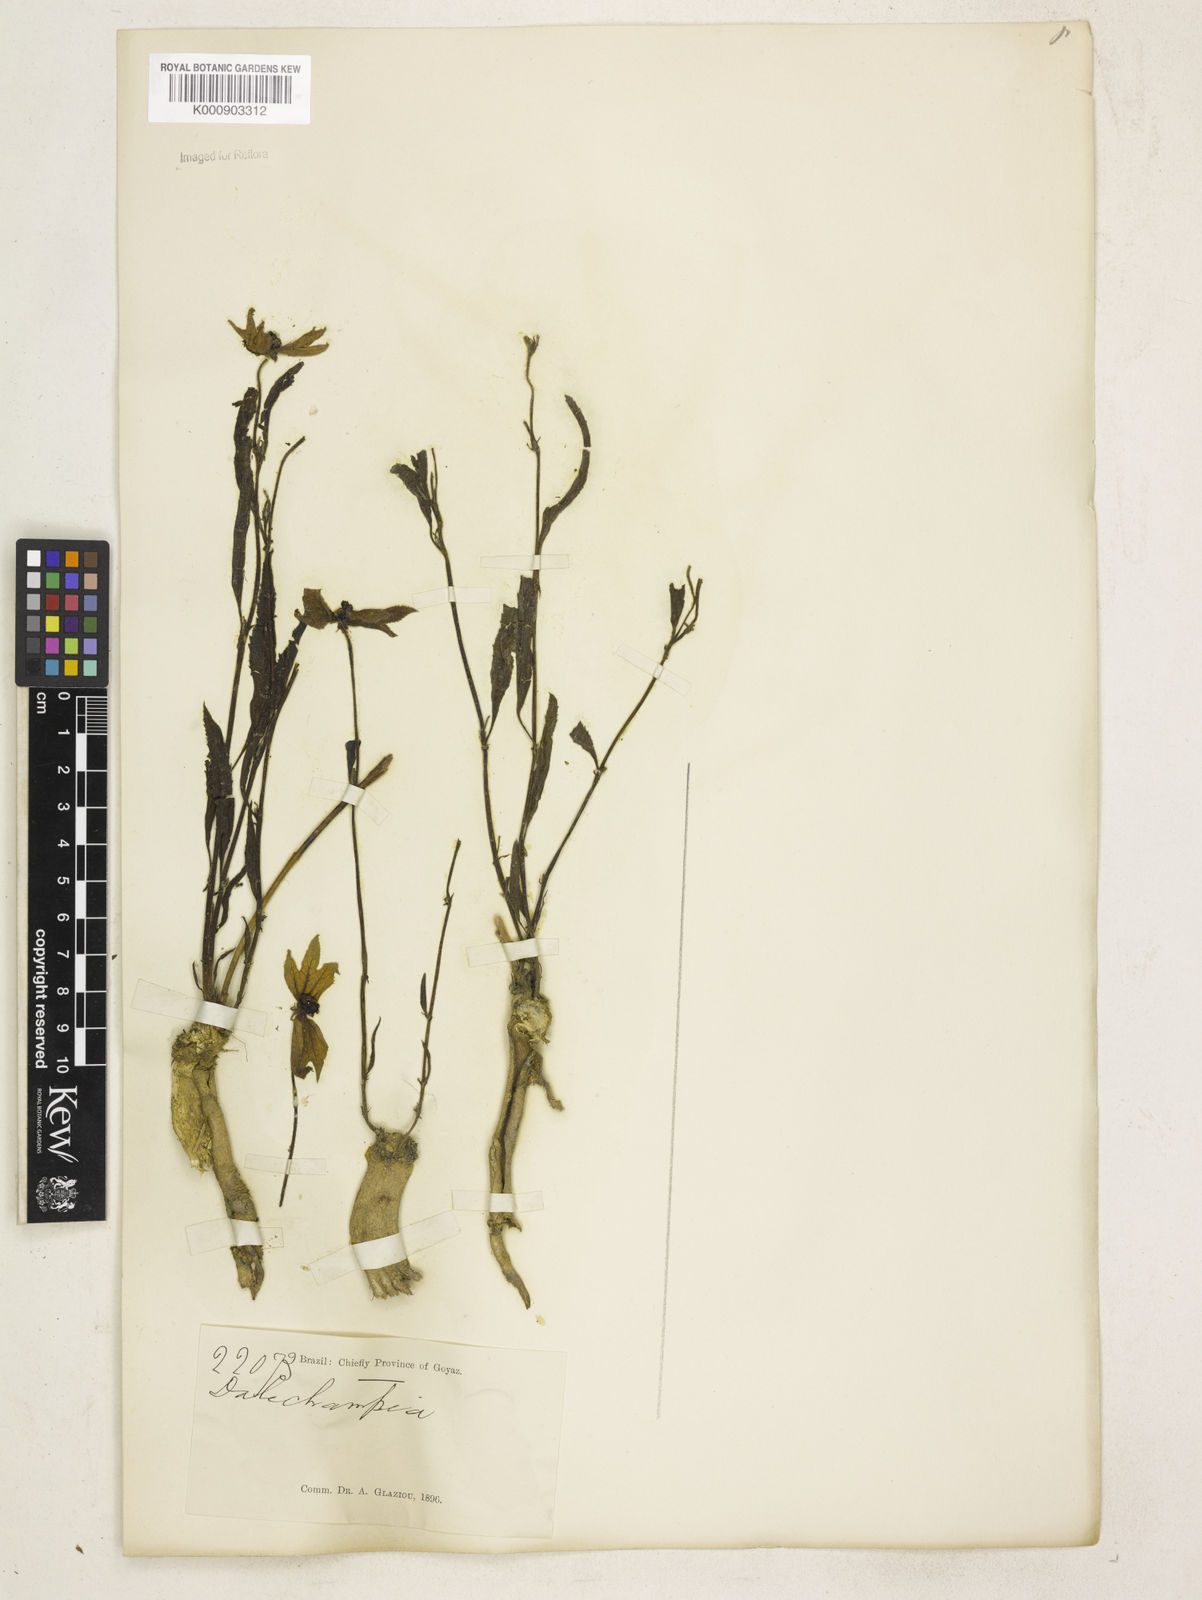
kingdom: Plantae
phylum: Tracheophyta
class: Magnoliopsida
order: Malpighiales
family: Euphorbiaceae
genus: Dalechampia
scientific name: Dalechampia linearis
